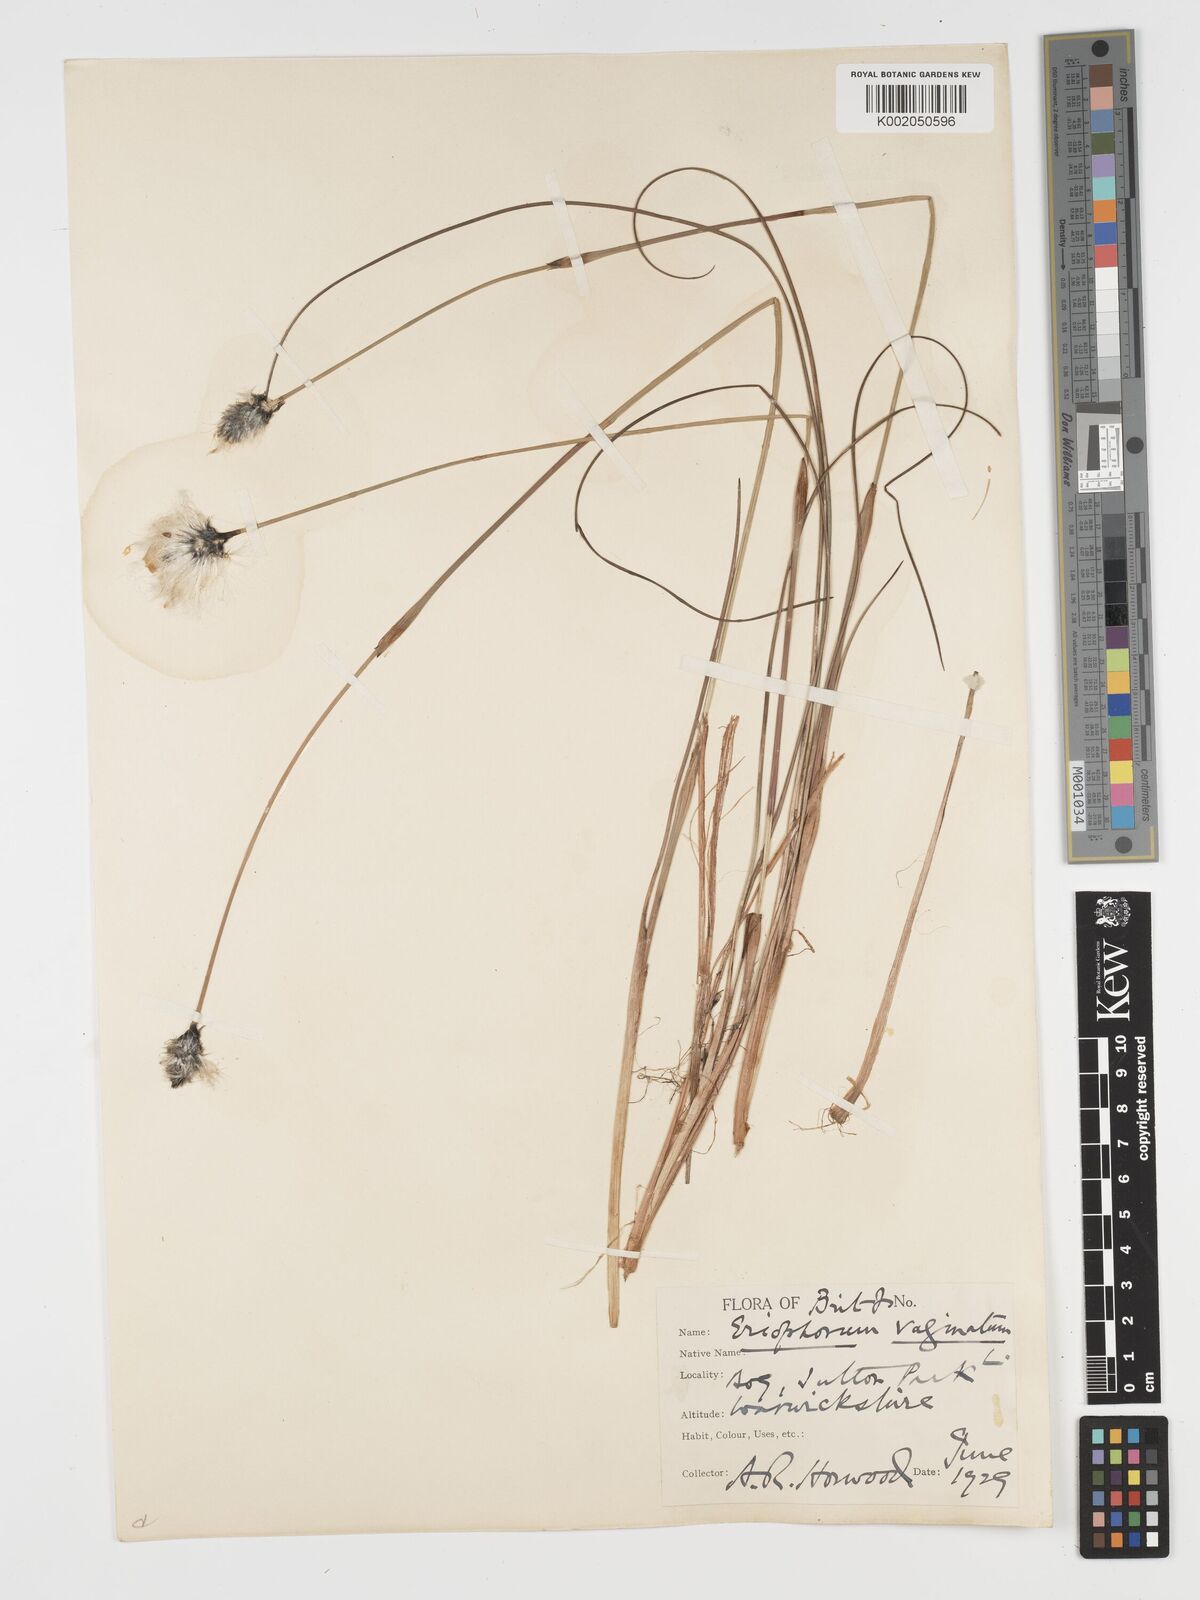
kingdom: Plantae
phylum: Tracheophyta
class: Liliopsida
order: Poales
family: Cyperaceae
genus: Eriophorum
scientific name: Eriophorum vaginatum
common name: Hare's-tail cottongrass
